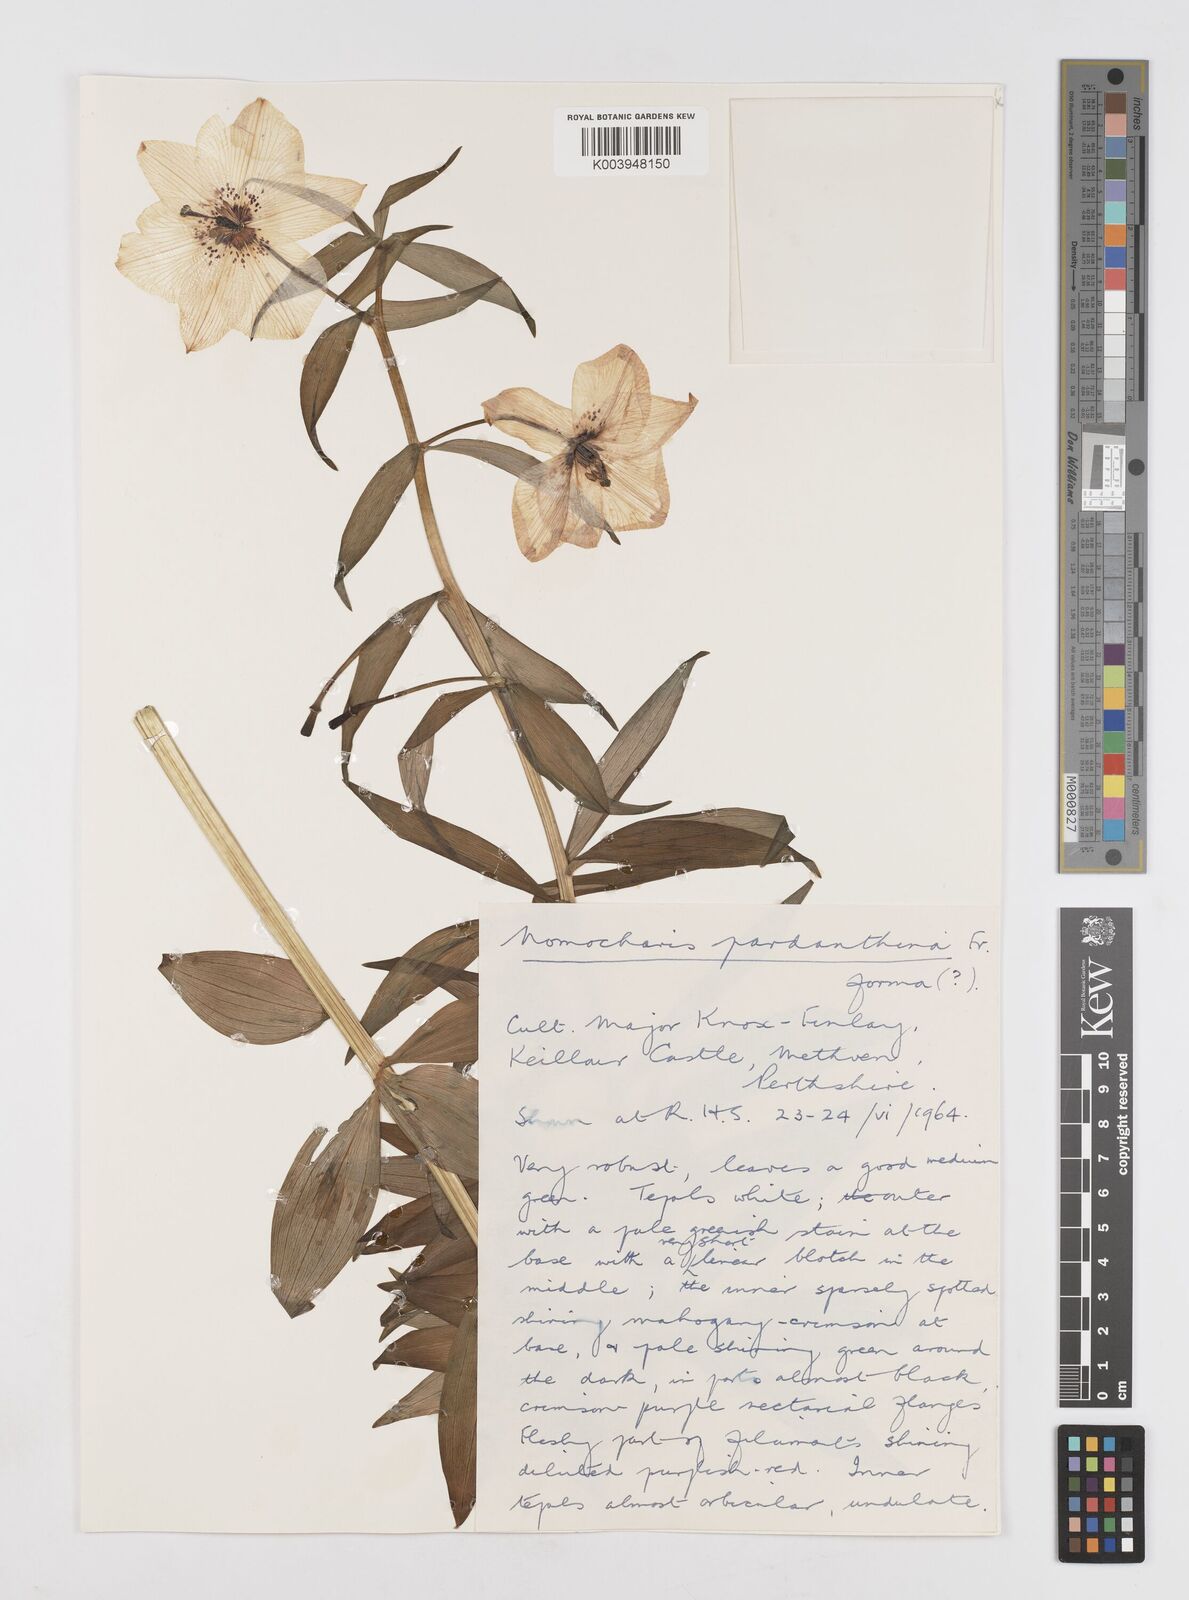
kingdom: Plantae
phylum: Tracheophyta
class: Liliopsida
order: Liliales
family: Liliaceae
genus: Lilium
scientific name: Lilium Nomocharis finlayorum
